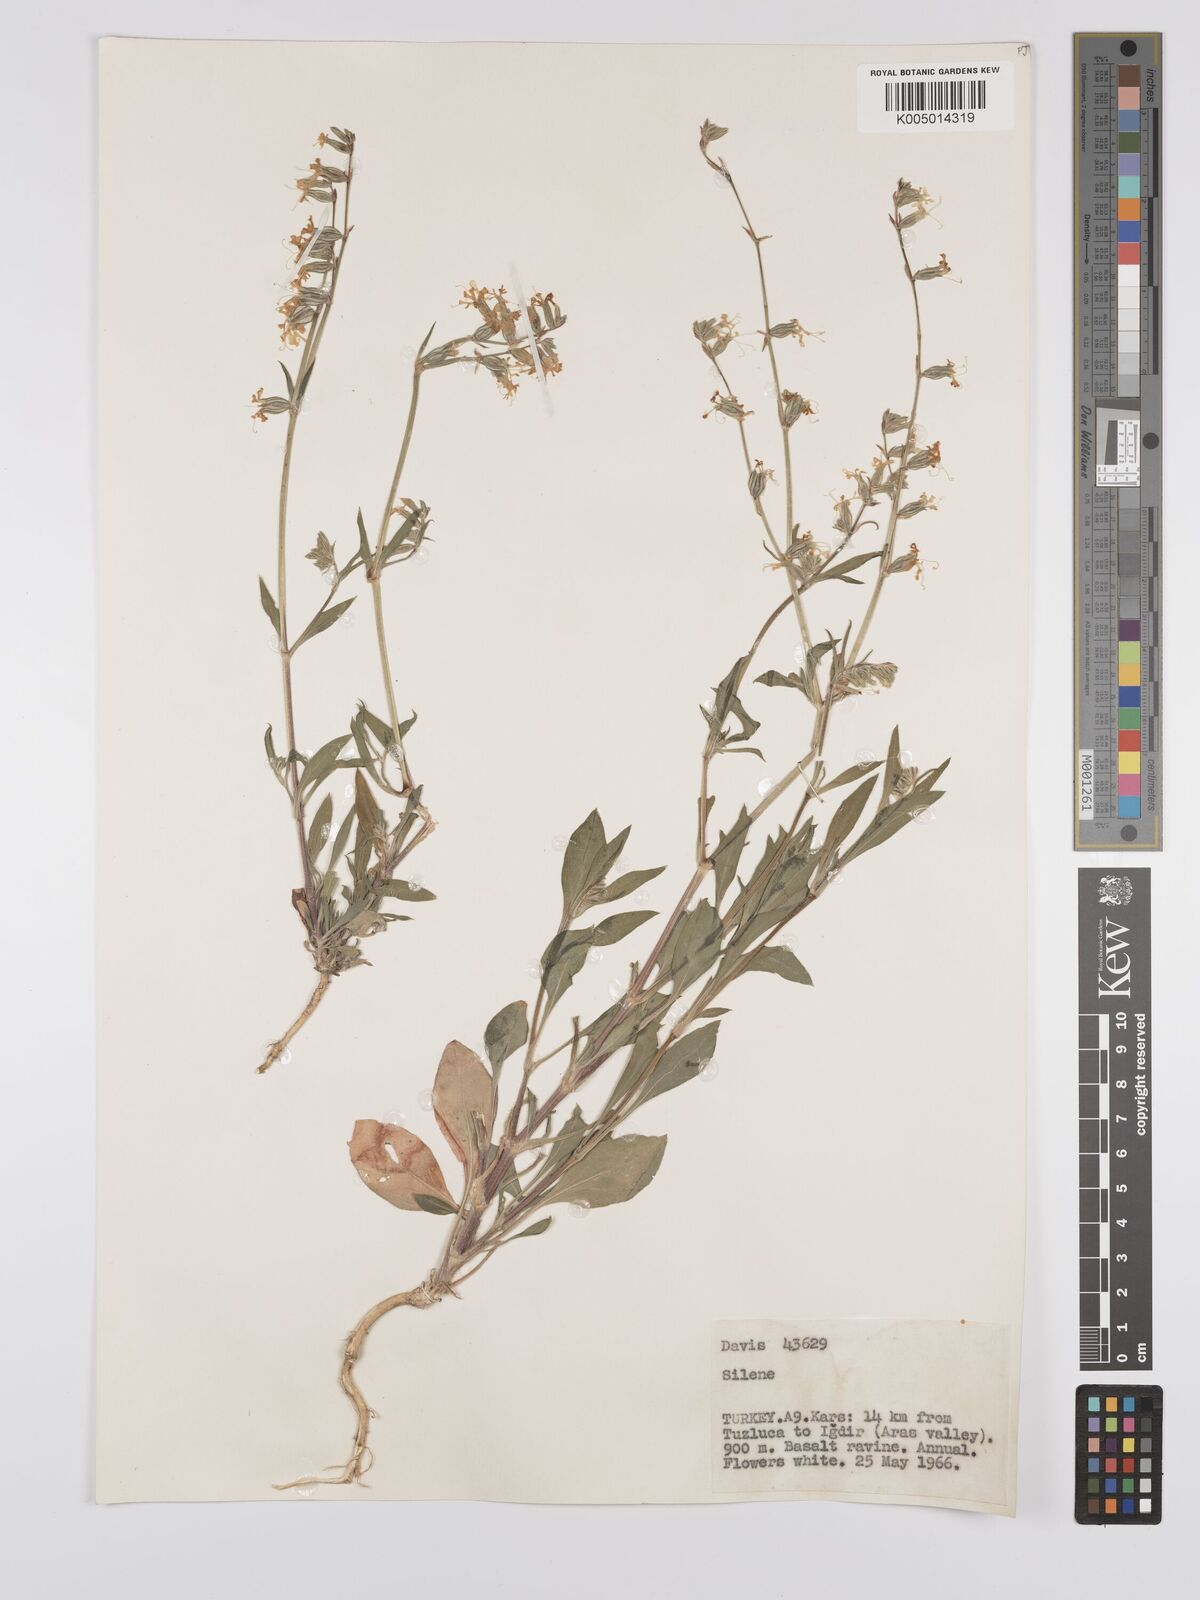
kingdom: Plantae
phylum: Tracheophyta
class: Magnoliopsida
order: Caryophyllales
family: Caryophyllaceae
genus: Silene
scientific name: Silene
